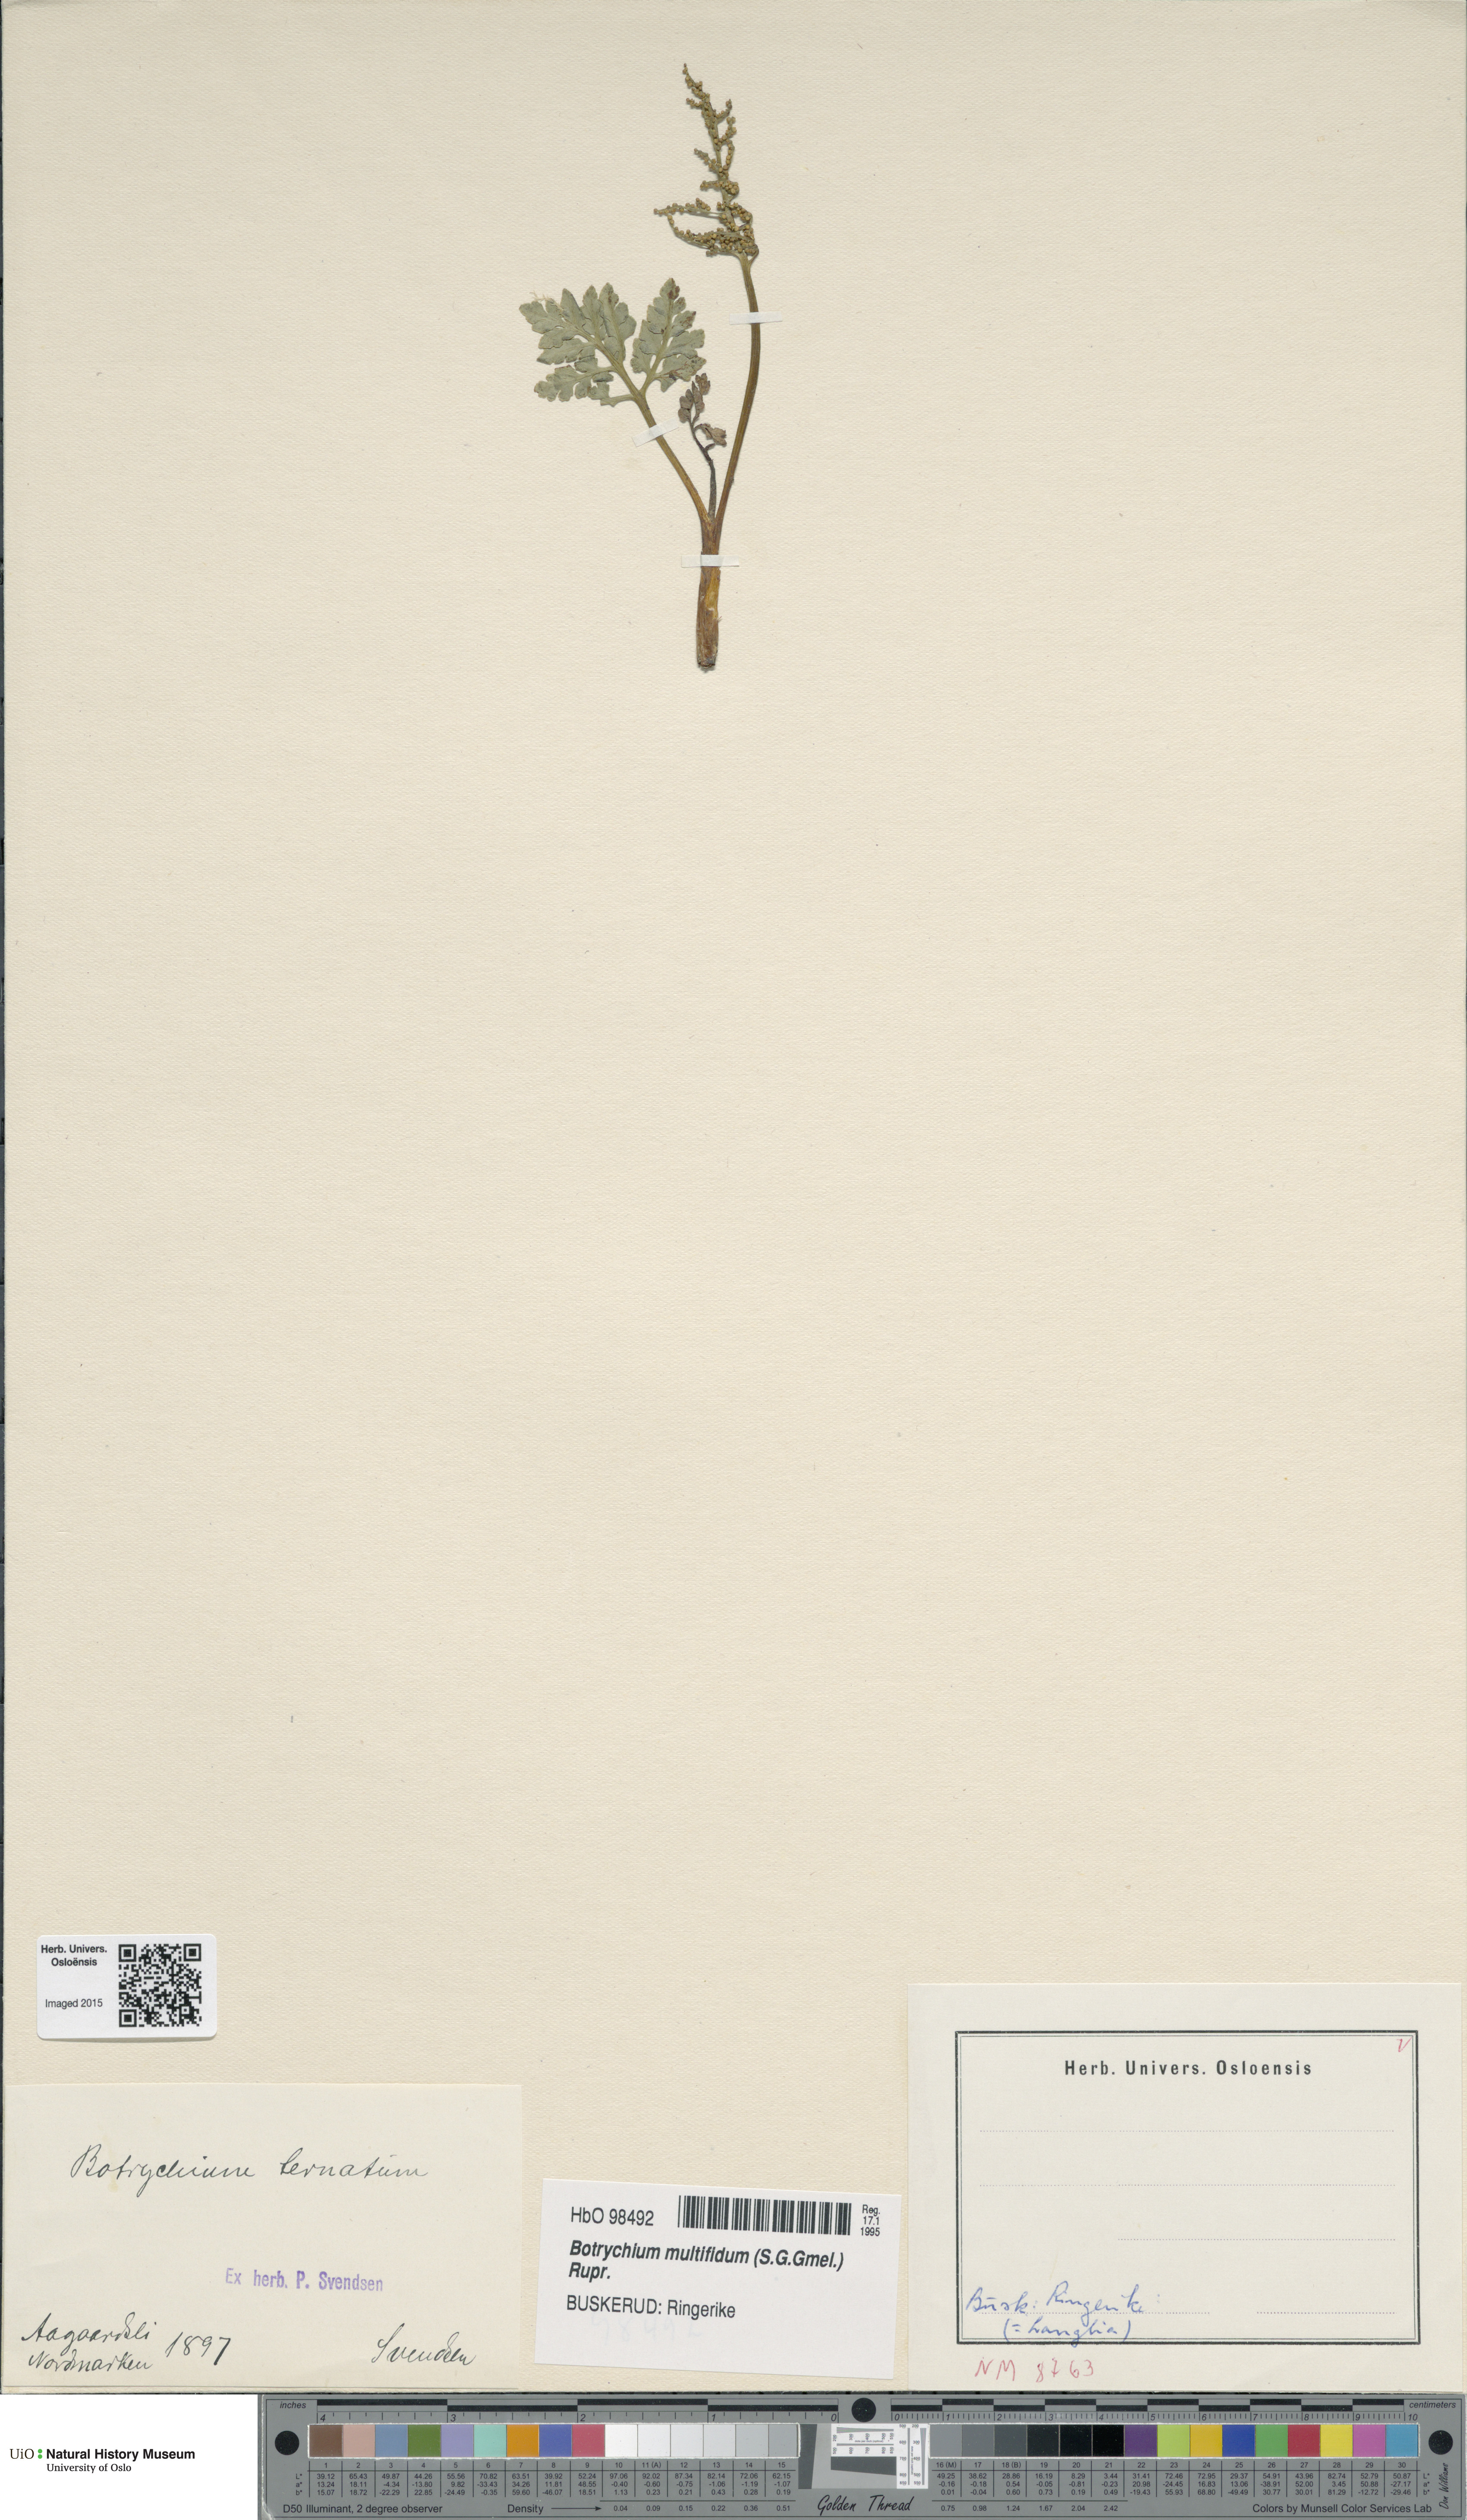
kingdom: Plantae
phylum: Tracheophyta
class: Polypodiopsida
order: Ophioglossales
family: Ophioglossaceae
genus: Sceptridium
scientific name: Sceptridium multifidum
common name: Leathery grape fern
